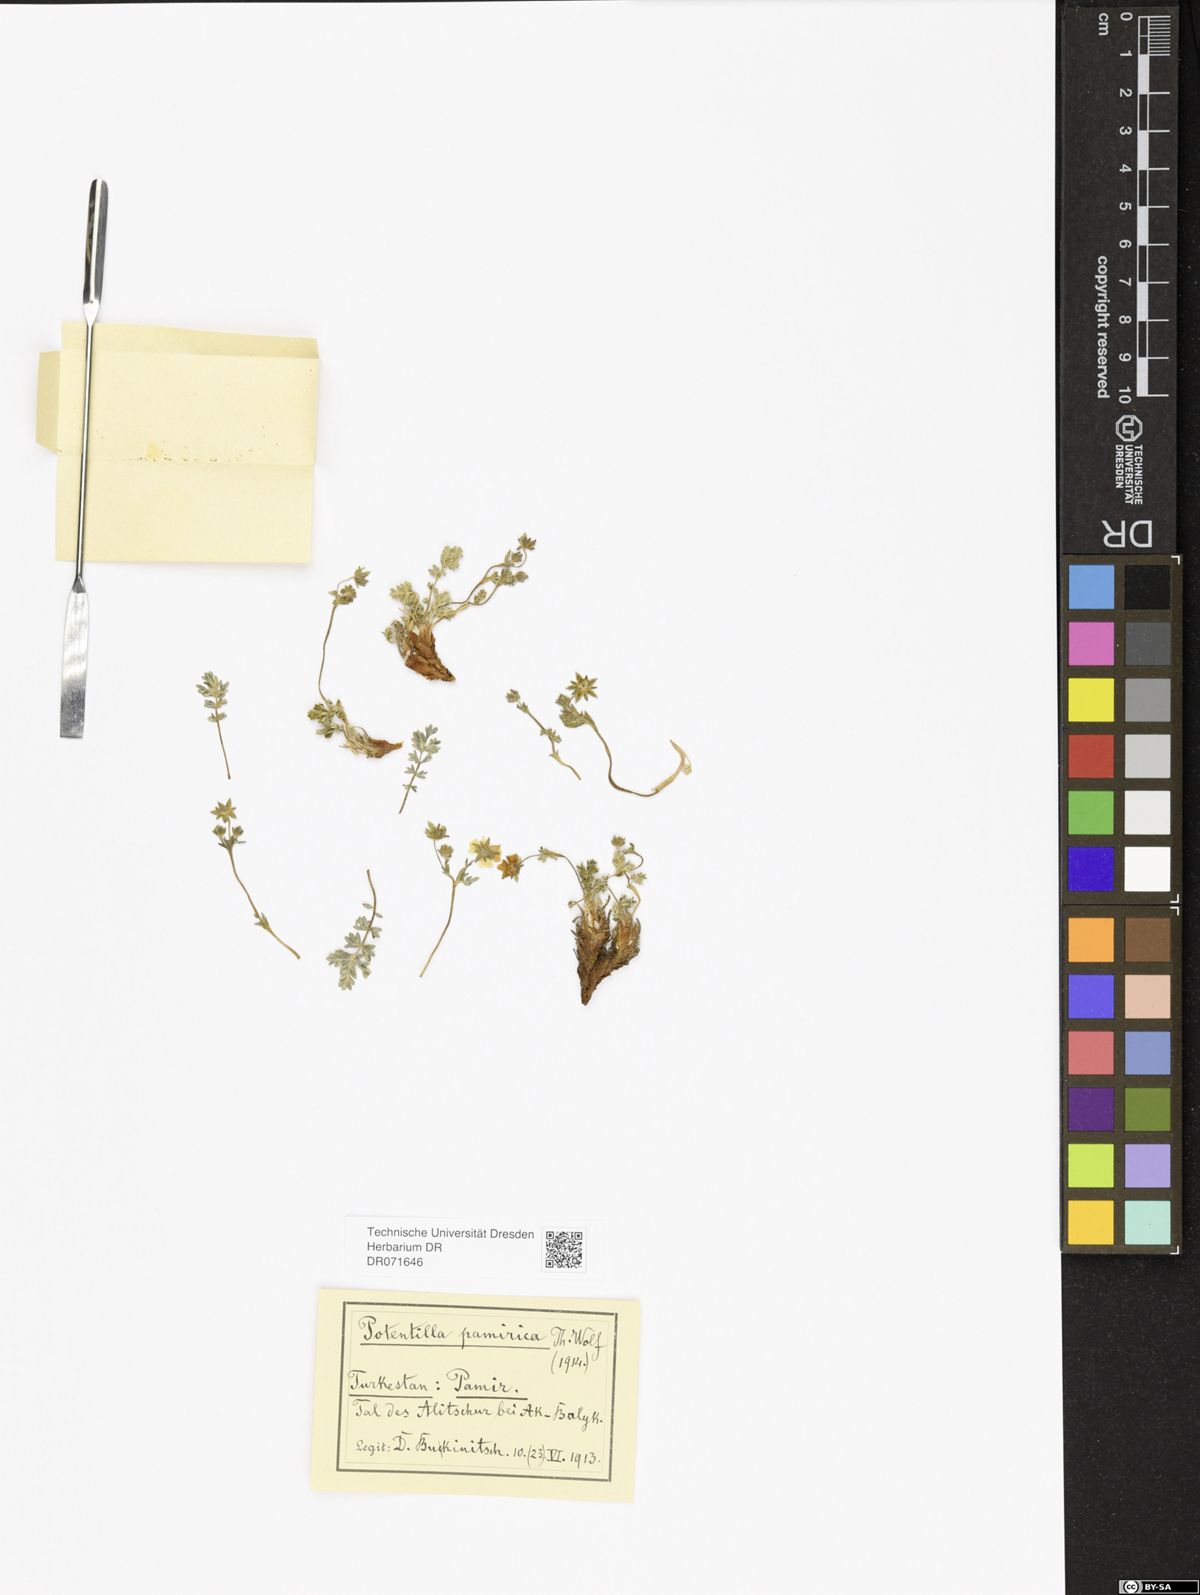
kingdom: Plantae
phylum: Tracheophyta
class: Magnoliopsida
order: Rosales
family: Rosaceae
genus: Potentilla
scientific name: Potentilla pamirica
